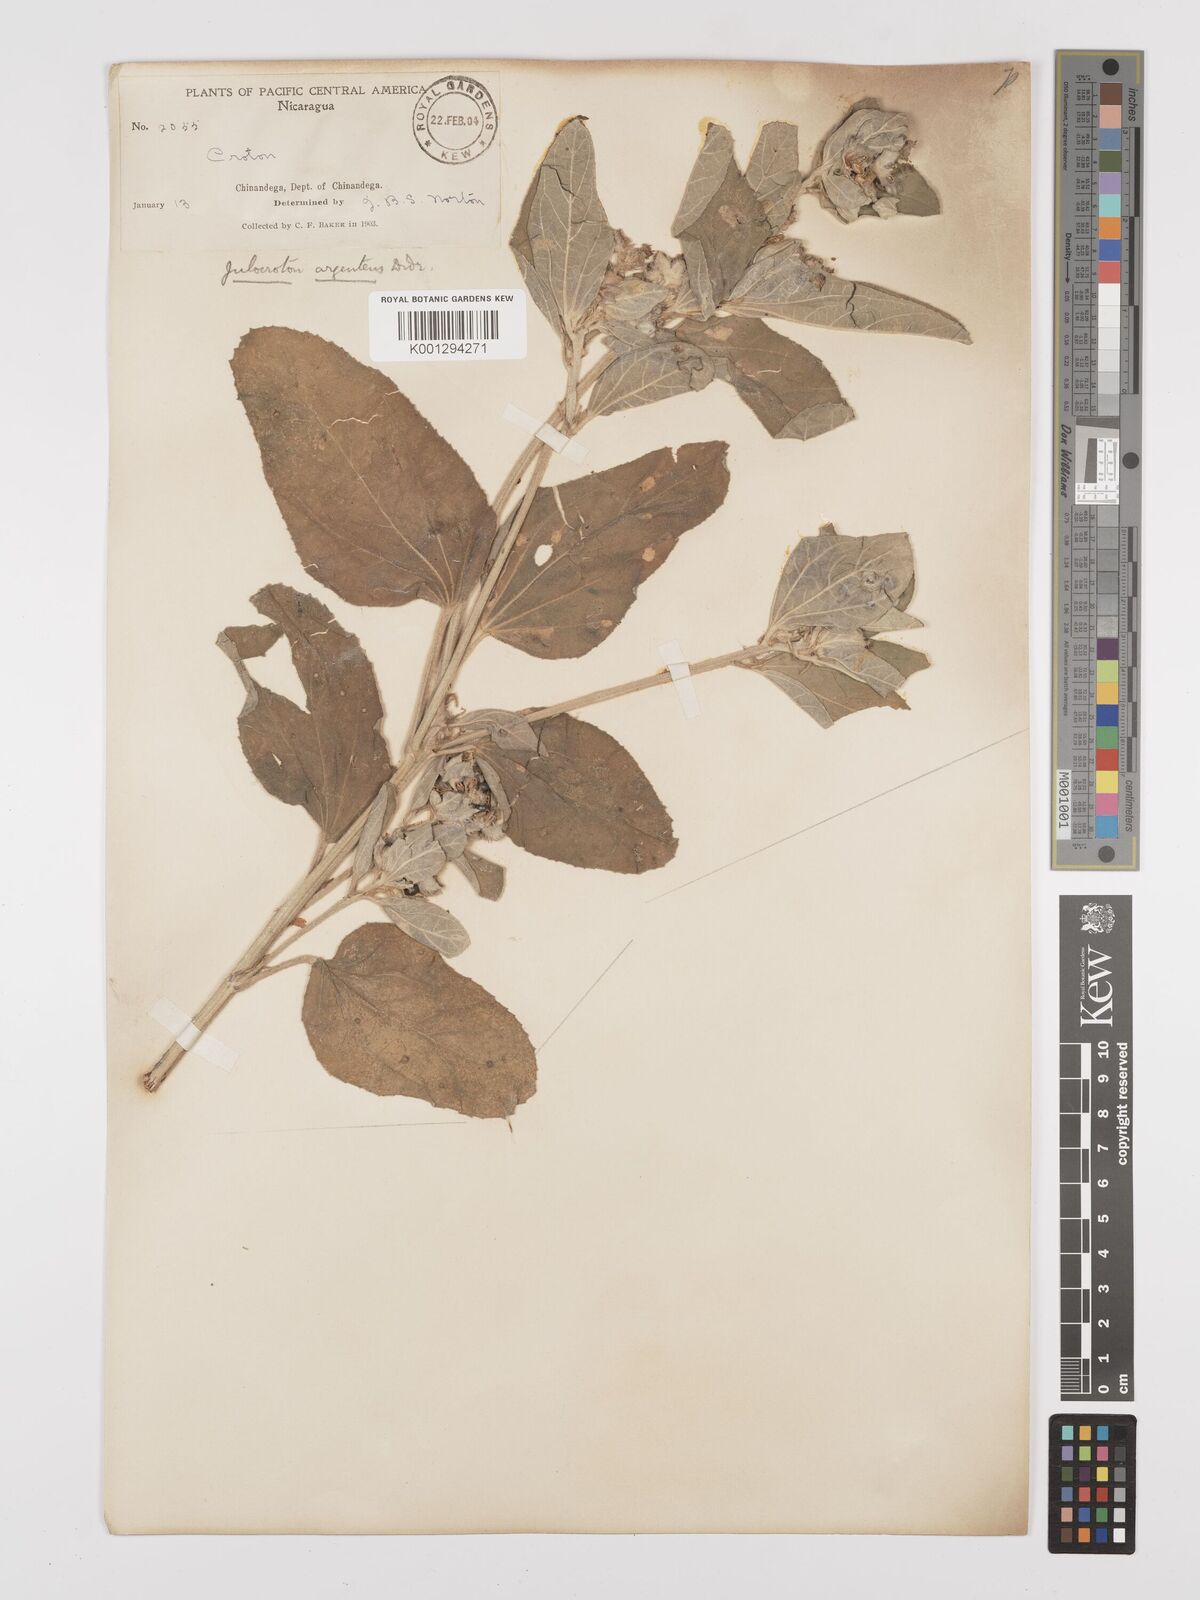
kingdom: Plantae
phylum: Tracheophyta
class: Magnoliopsida
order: Malpighiales
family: Euphorbiaceae
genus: Croton
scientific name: Croton argenteus
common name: Silver july croton
